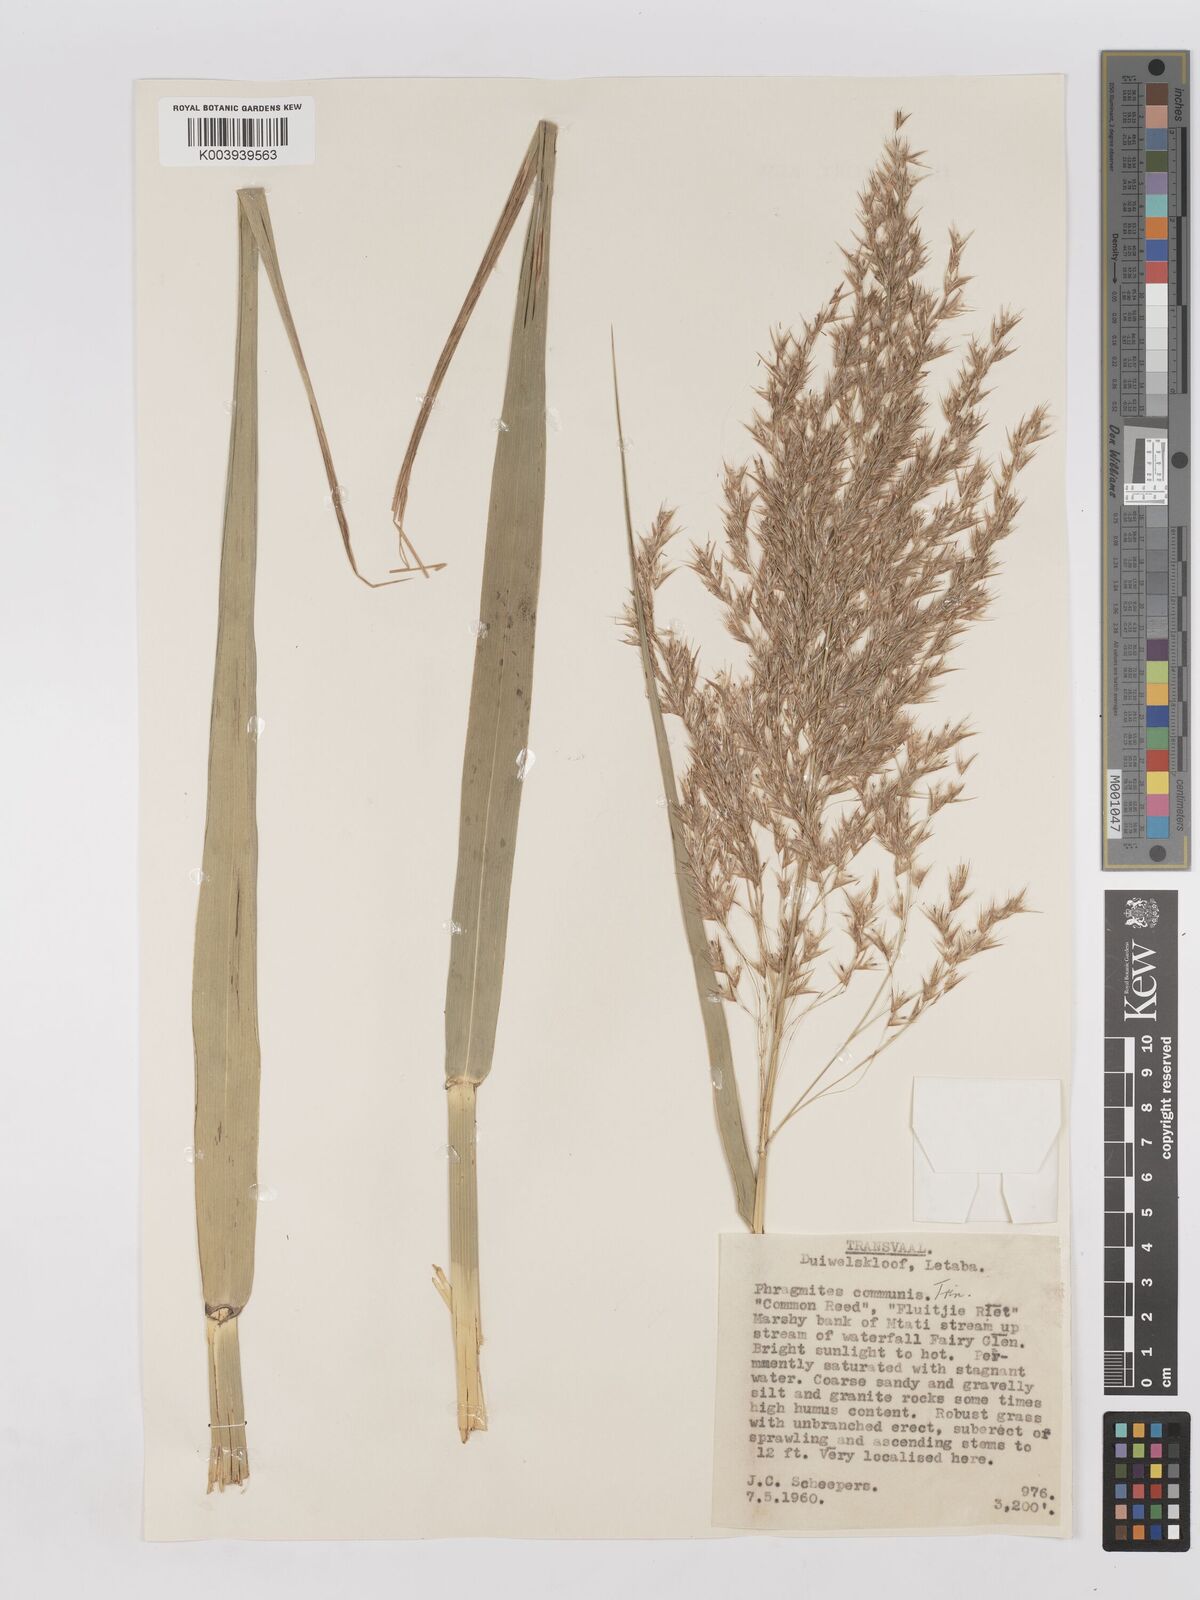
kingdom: Plantae
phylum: Tracheophyta
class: Liliopsida
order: Poales
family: Poaceae
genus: Phragmites
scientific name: Phragmites mauritianus
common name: Reed grass
